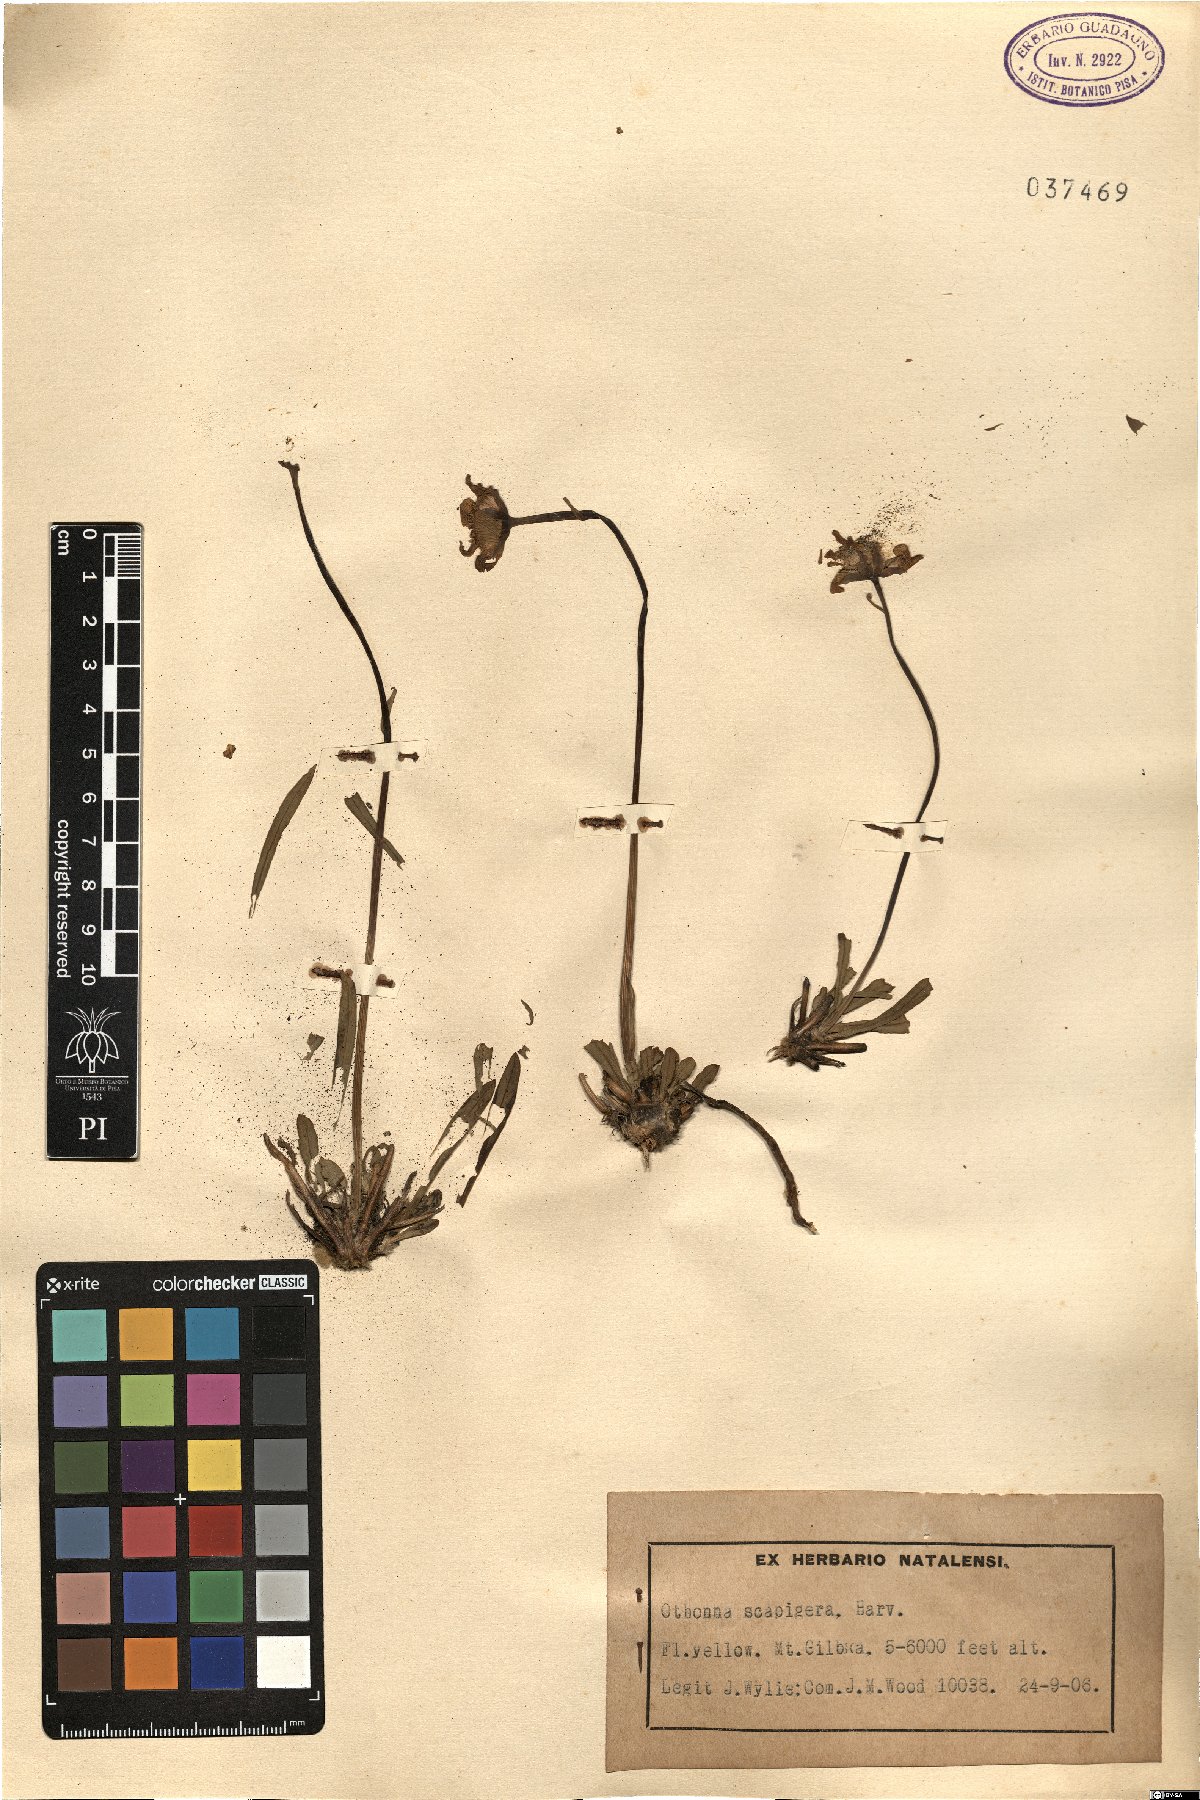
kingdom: Plantae
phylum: Tracheophyta
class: Magnoliopsida
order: Asterales
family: Asteraceae
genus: Othonna
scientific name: Othonna natalensis
